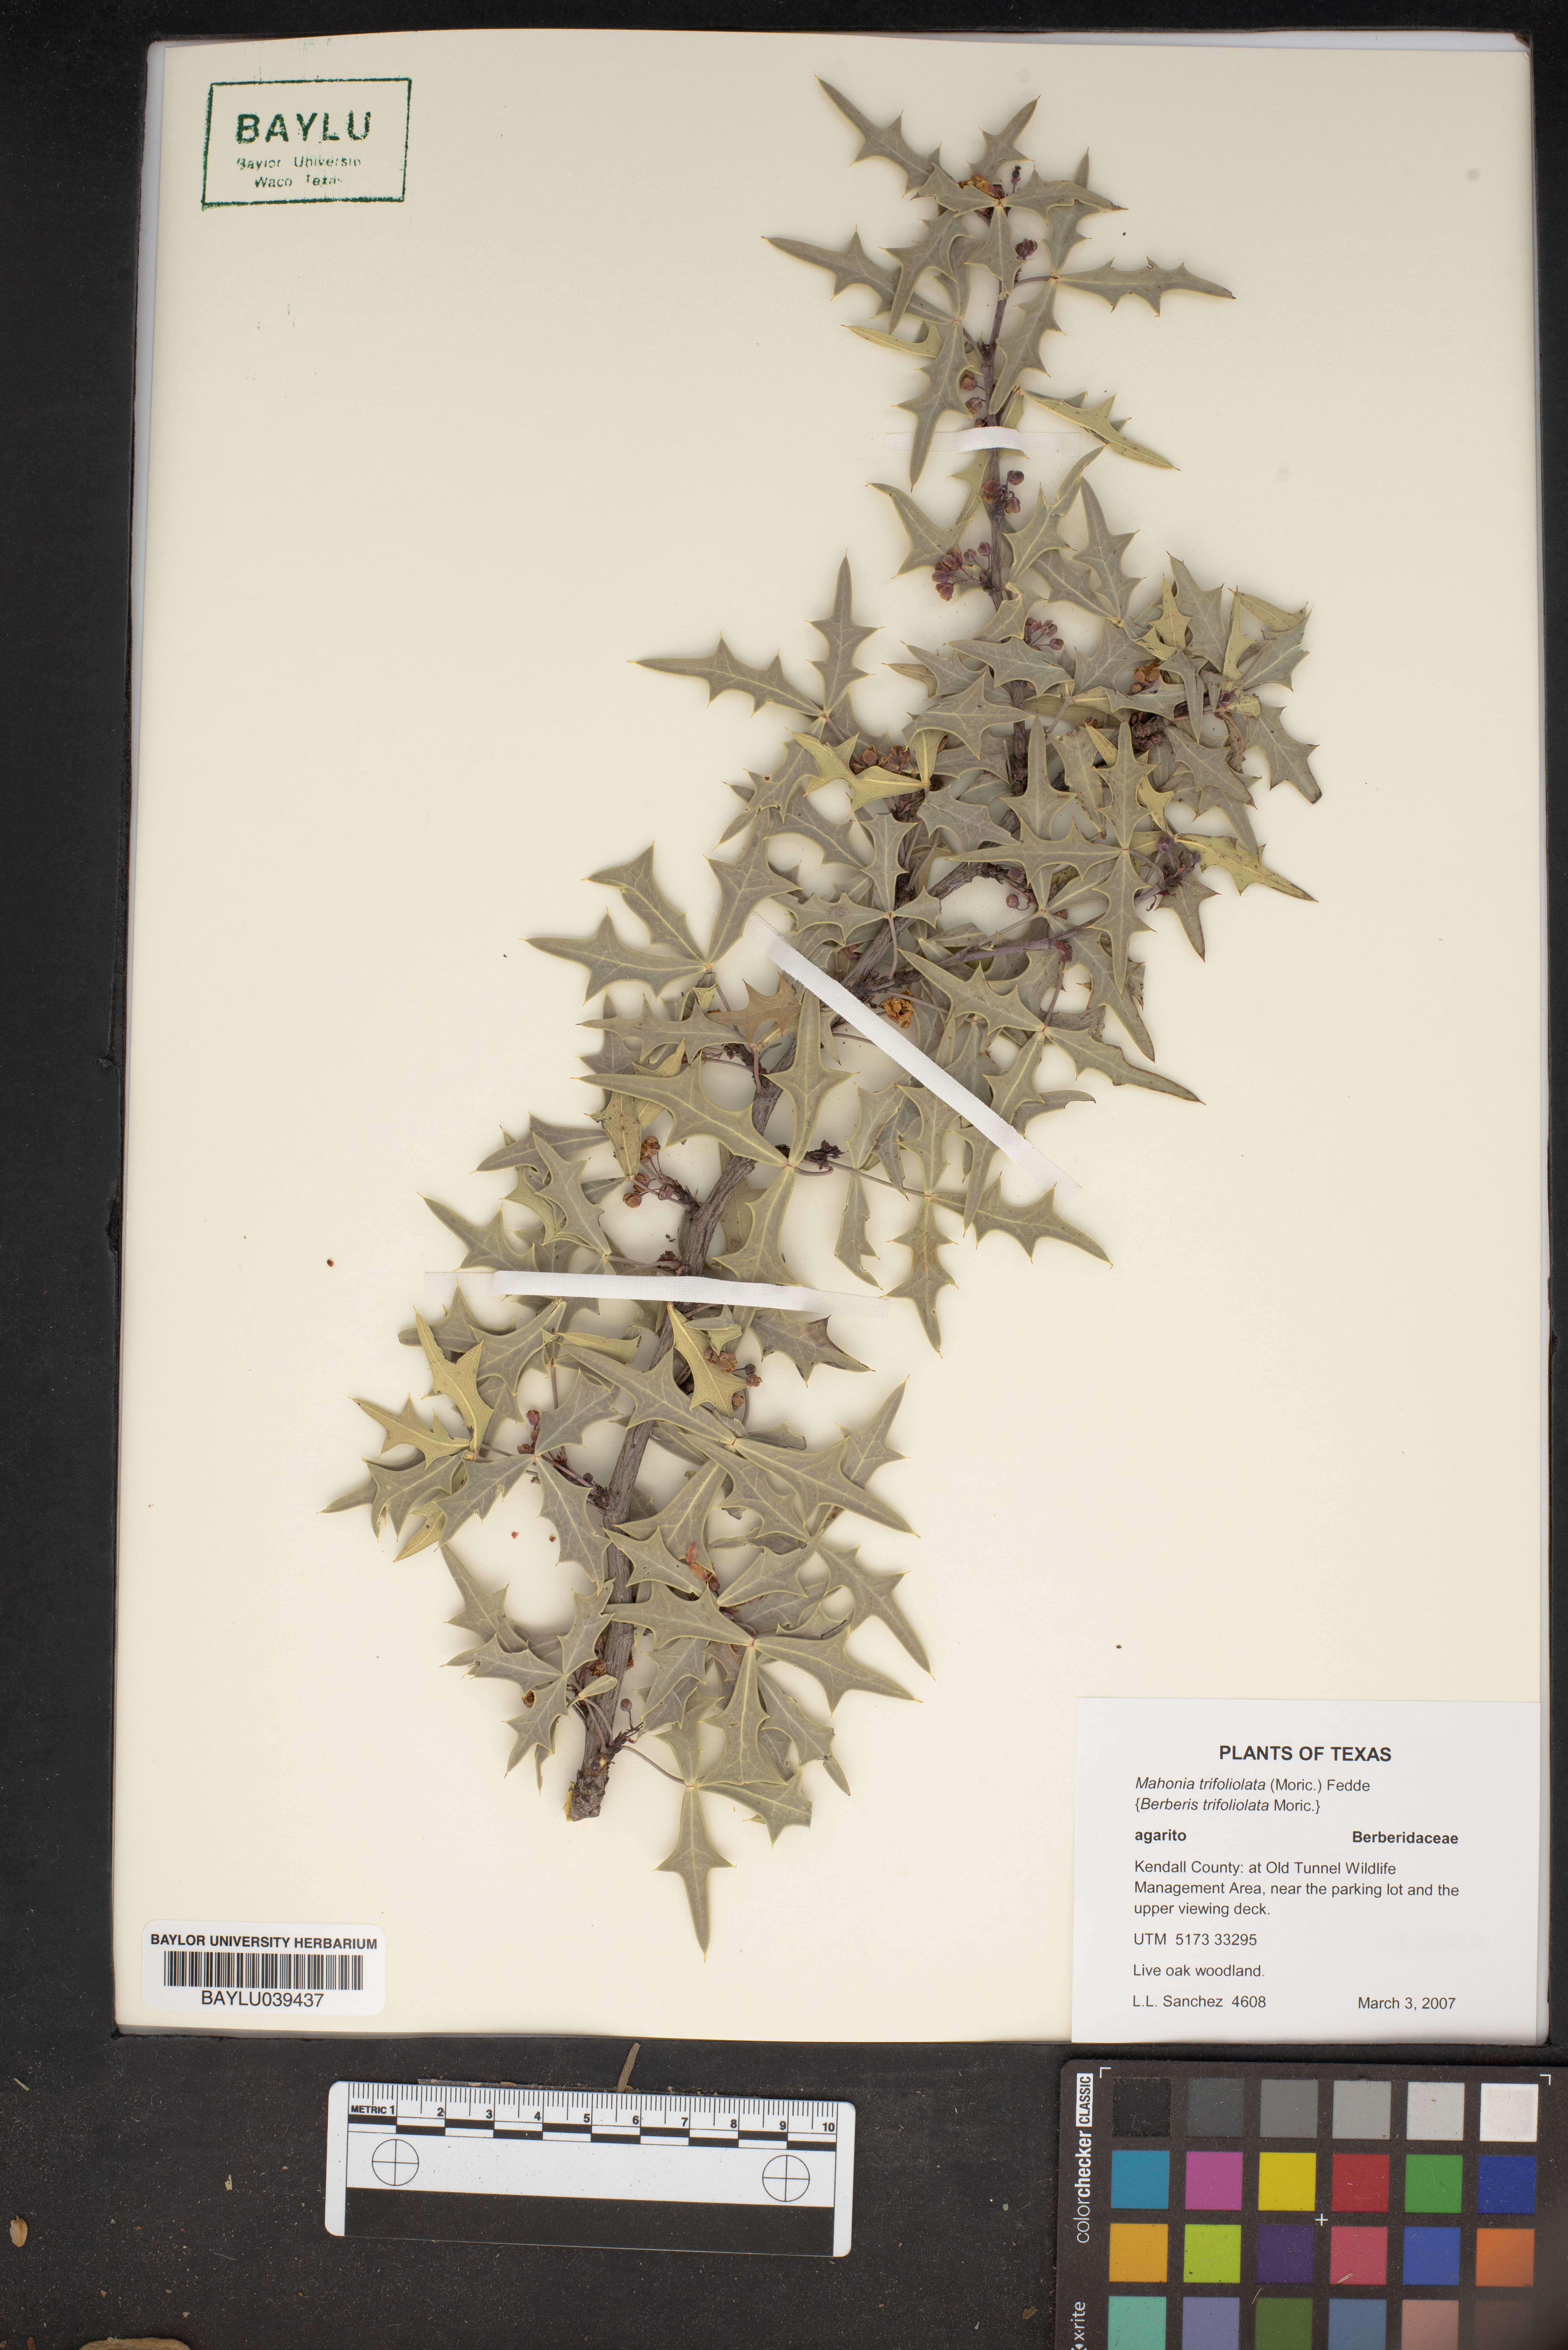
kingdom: Plantae
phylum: Tracheophyta
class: Magnoliopsida
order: Ranunculales
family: Berberidaceae
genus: Alloberberis
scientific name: Alloberberis trifoliolata
